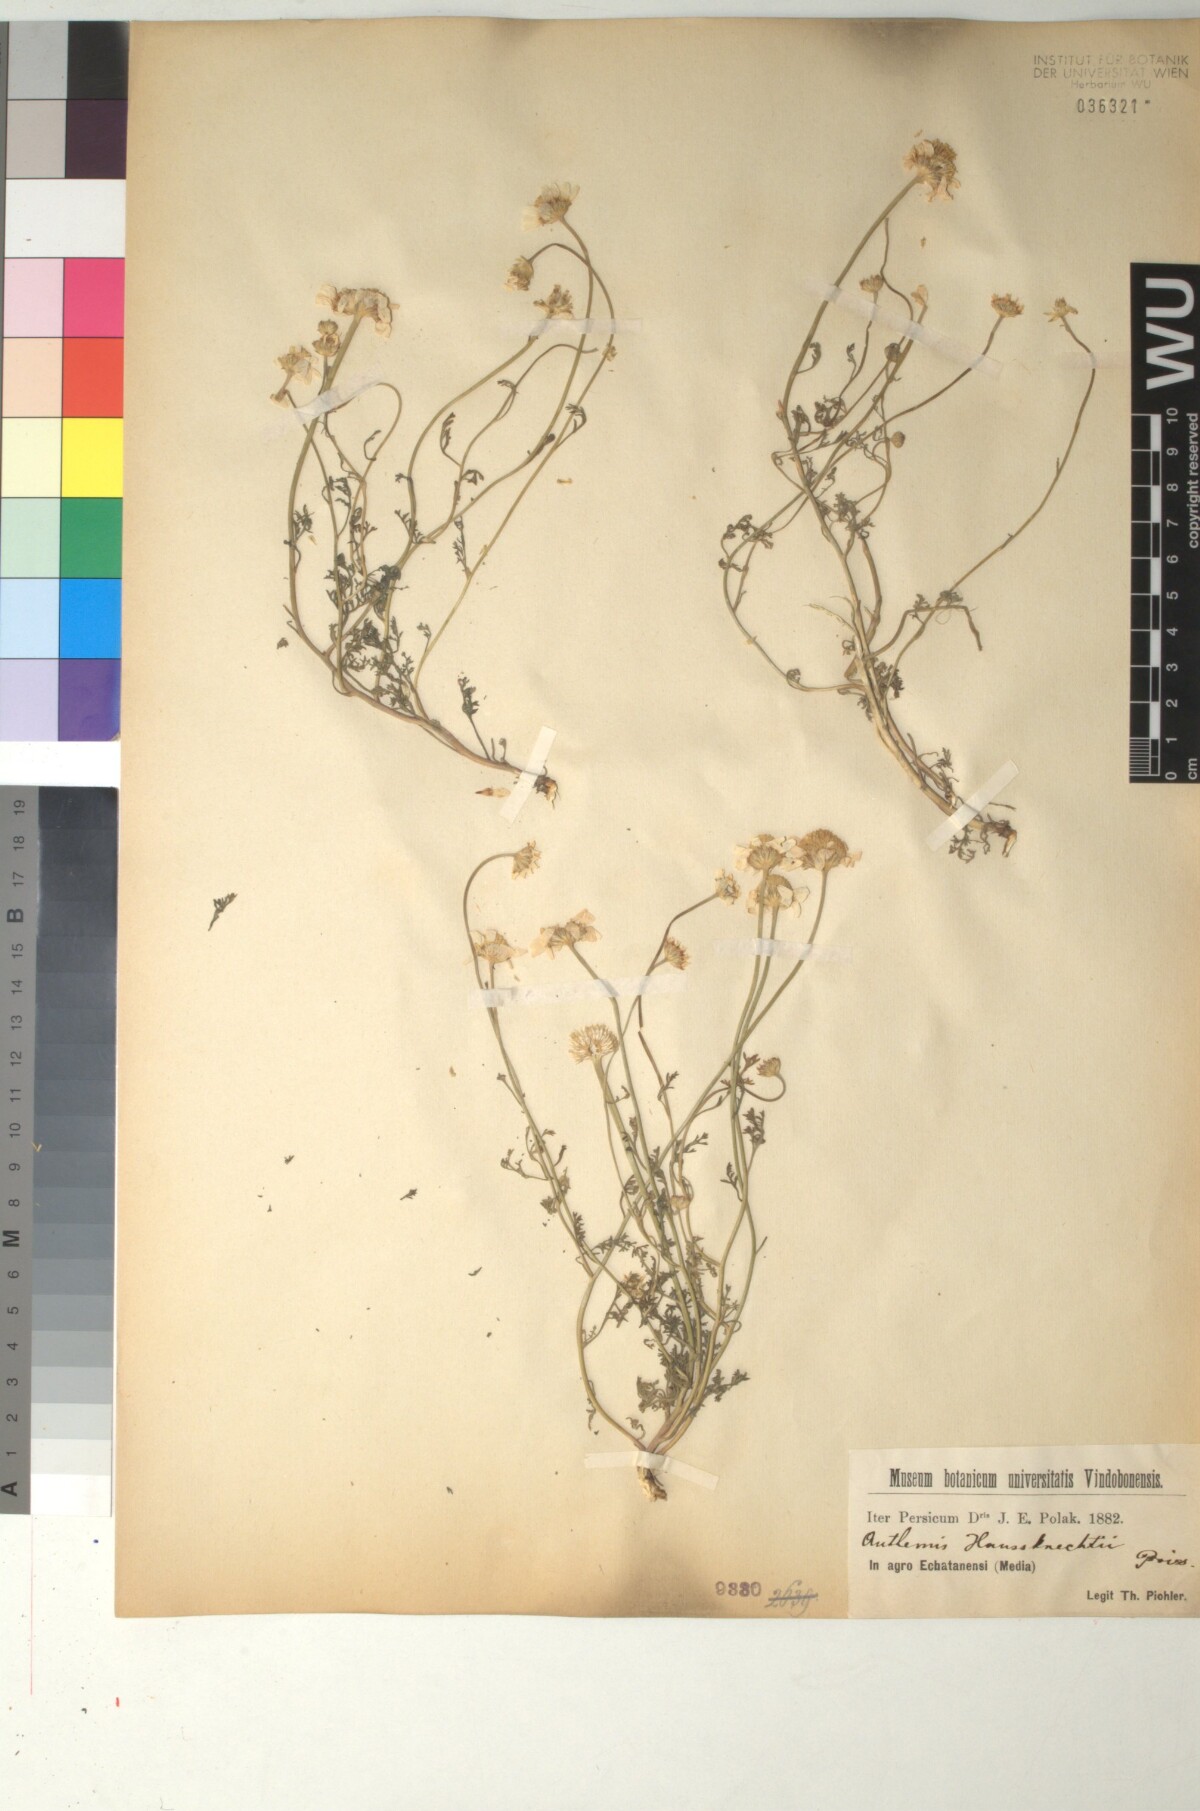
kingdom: Plantae
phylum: Tracheophyta
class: Magnoliopsida
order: Asterales
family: Asteraceae
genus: Anthemis
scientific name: Anthemis haussknechtii
